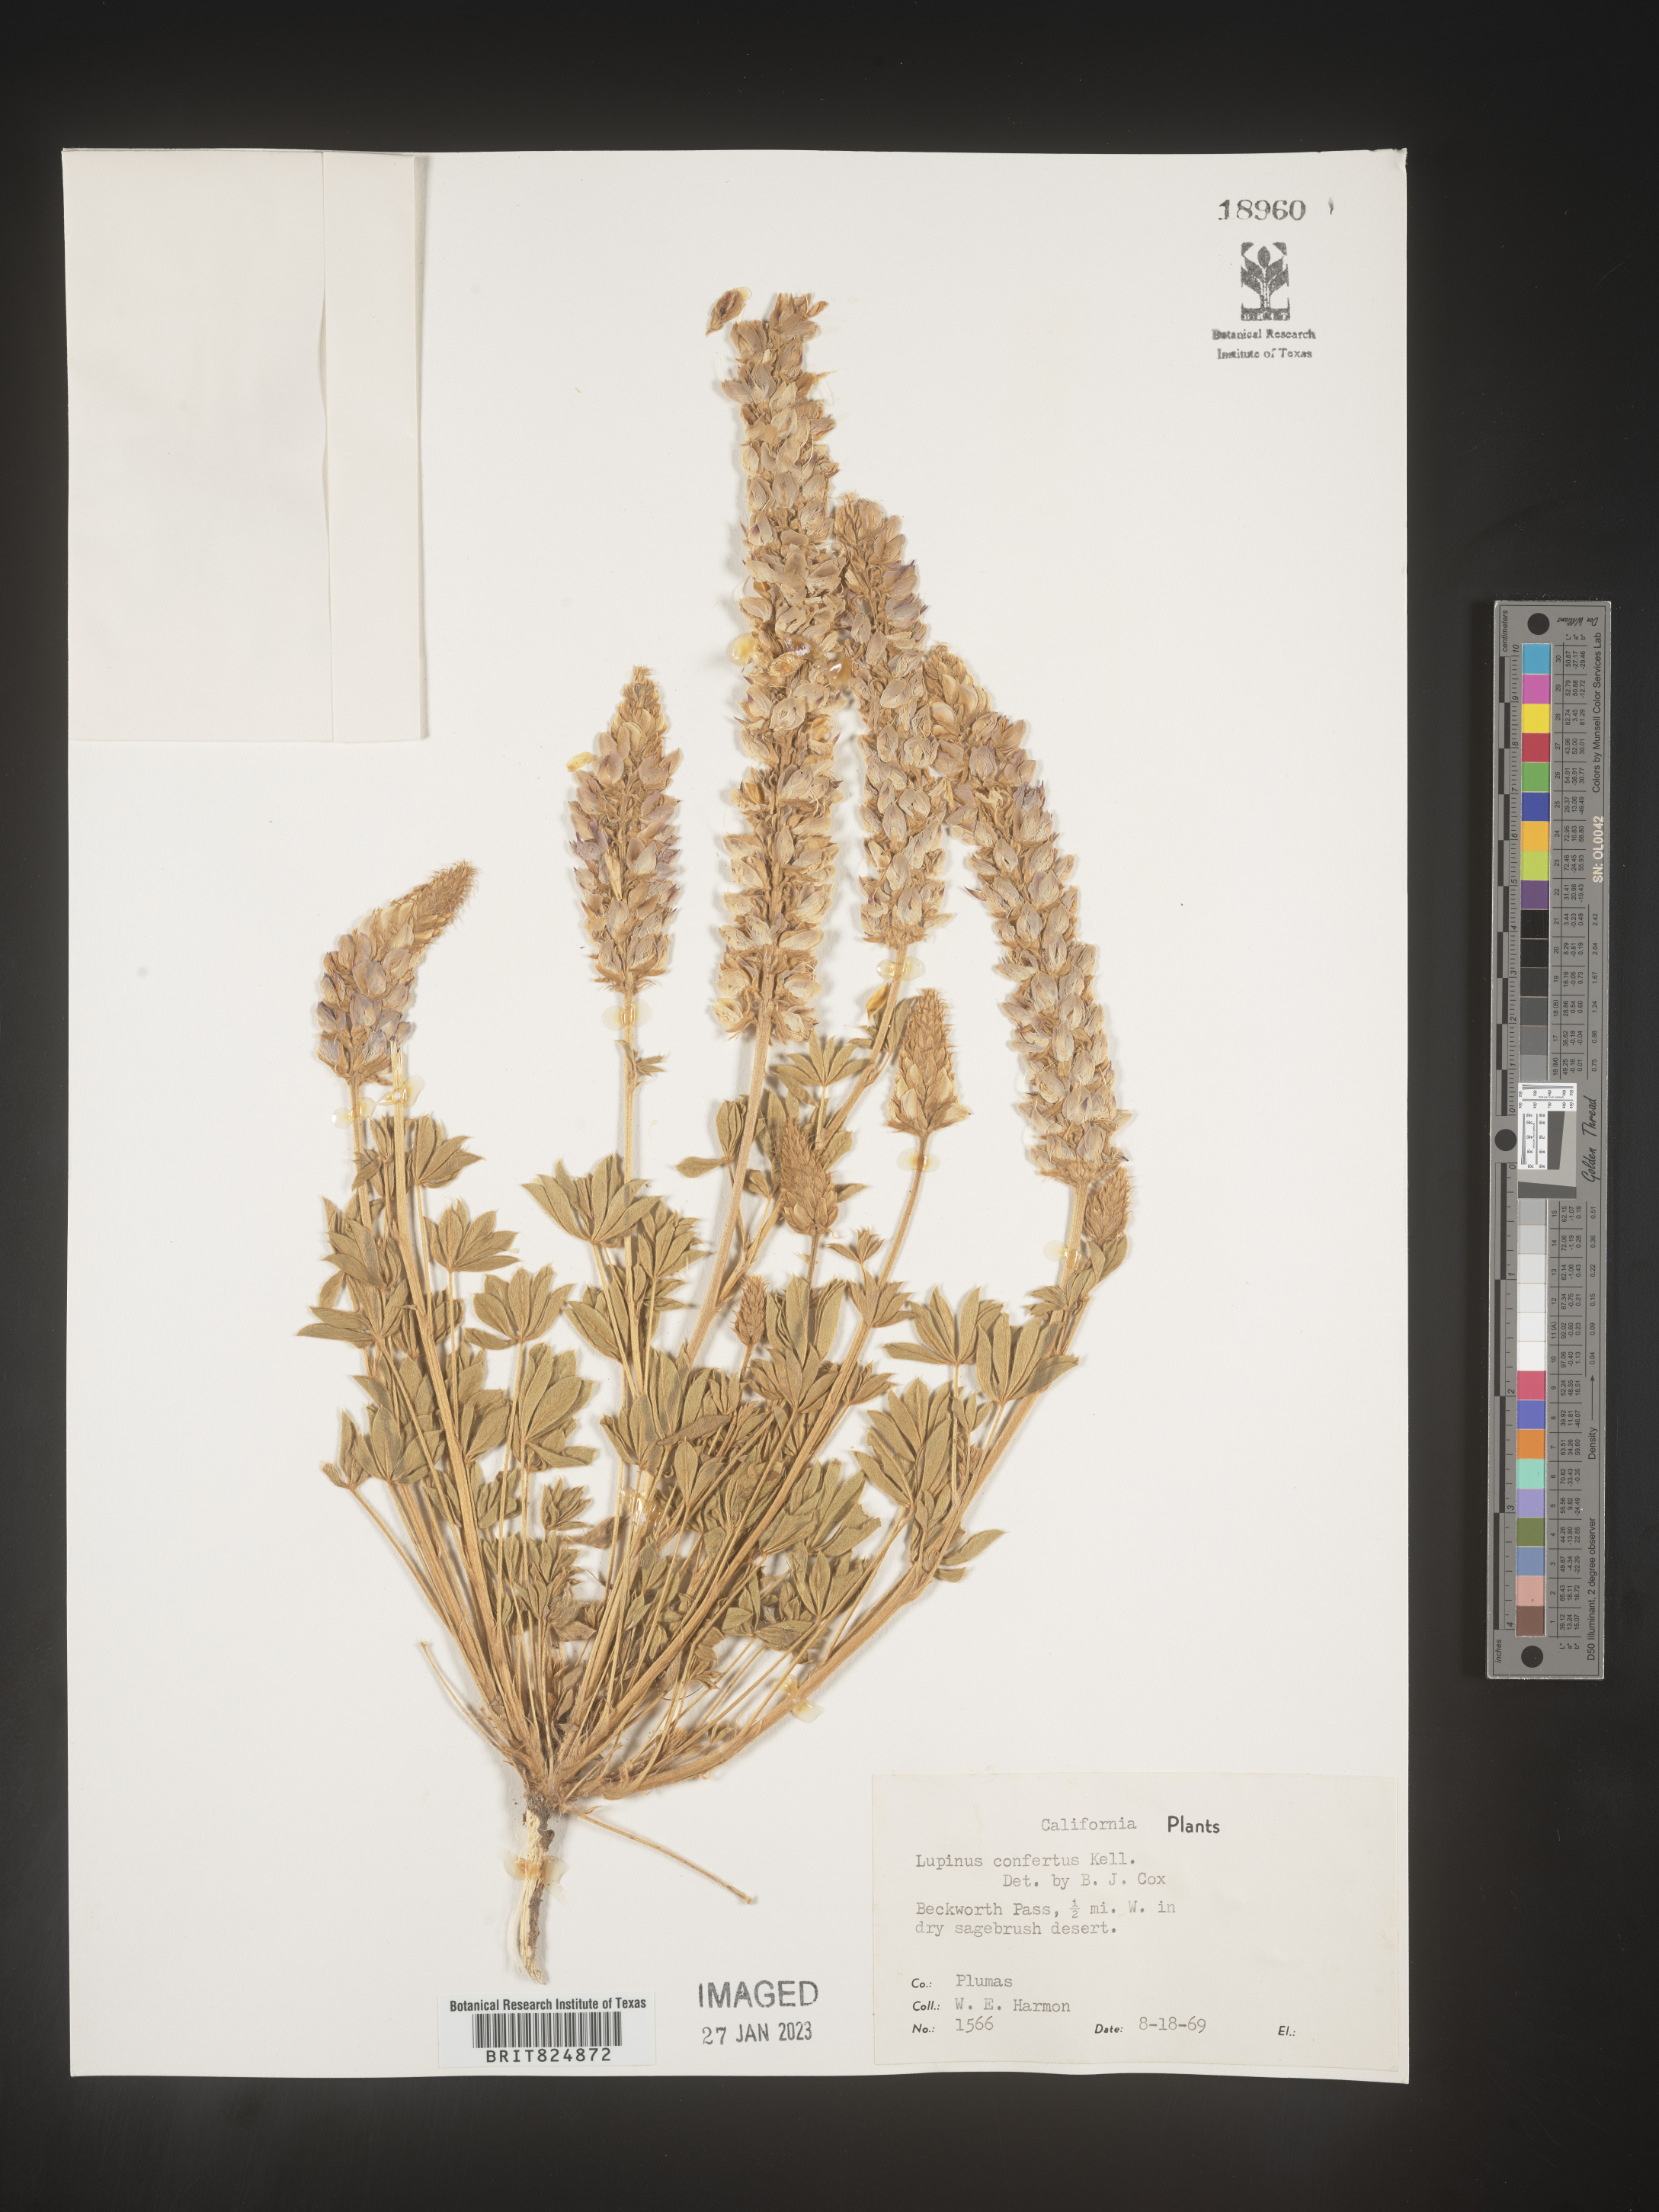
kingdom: Plantae
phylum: Tracheophyta
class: Magnoliopsida
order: Fabales
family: Fabaceae
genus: Lupinus
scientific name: Lupinus
